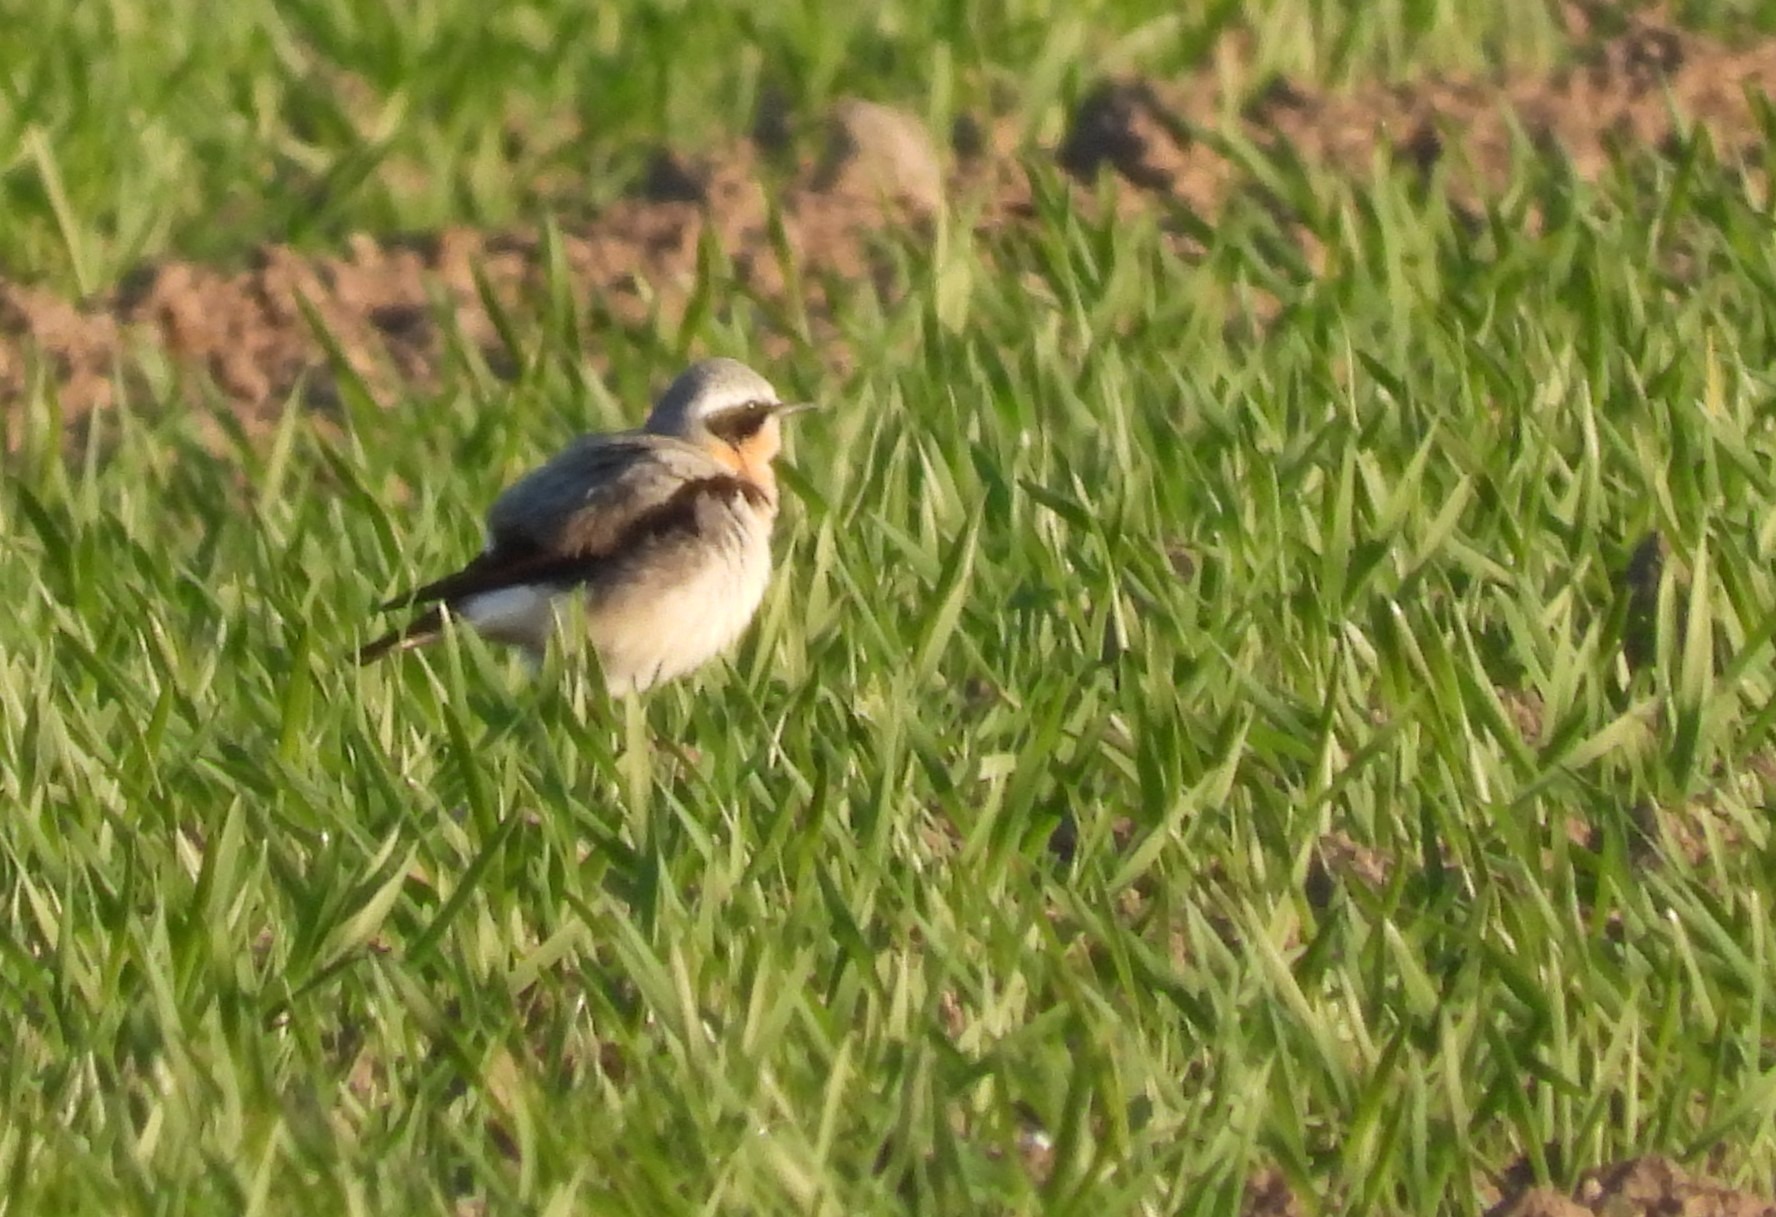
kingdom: Animalia
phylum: Chordata
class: Aves
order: Passeriformes
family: Muscicapidae
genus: Oenanthe
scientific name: Oenanthe oenanthe
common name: Stenpikker
